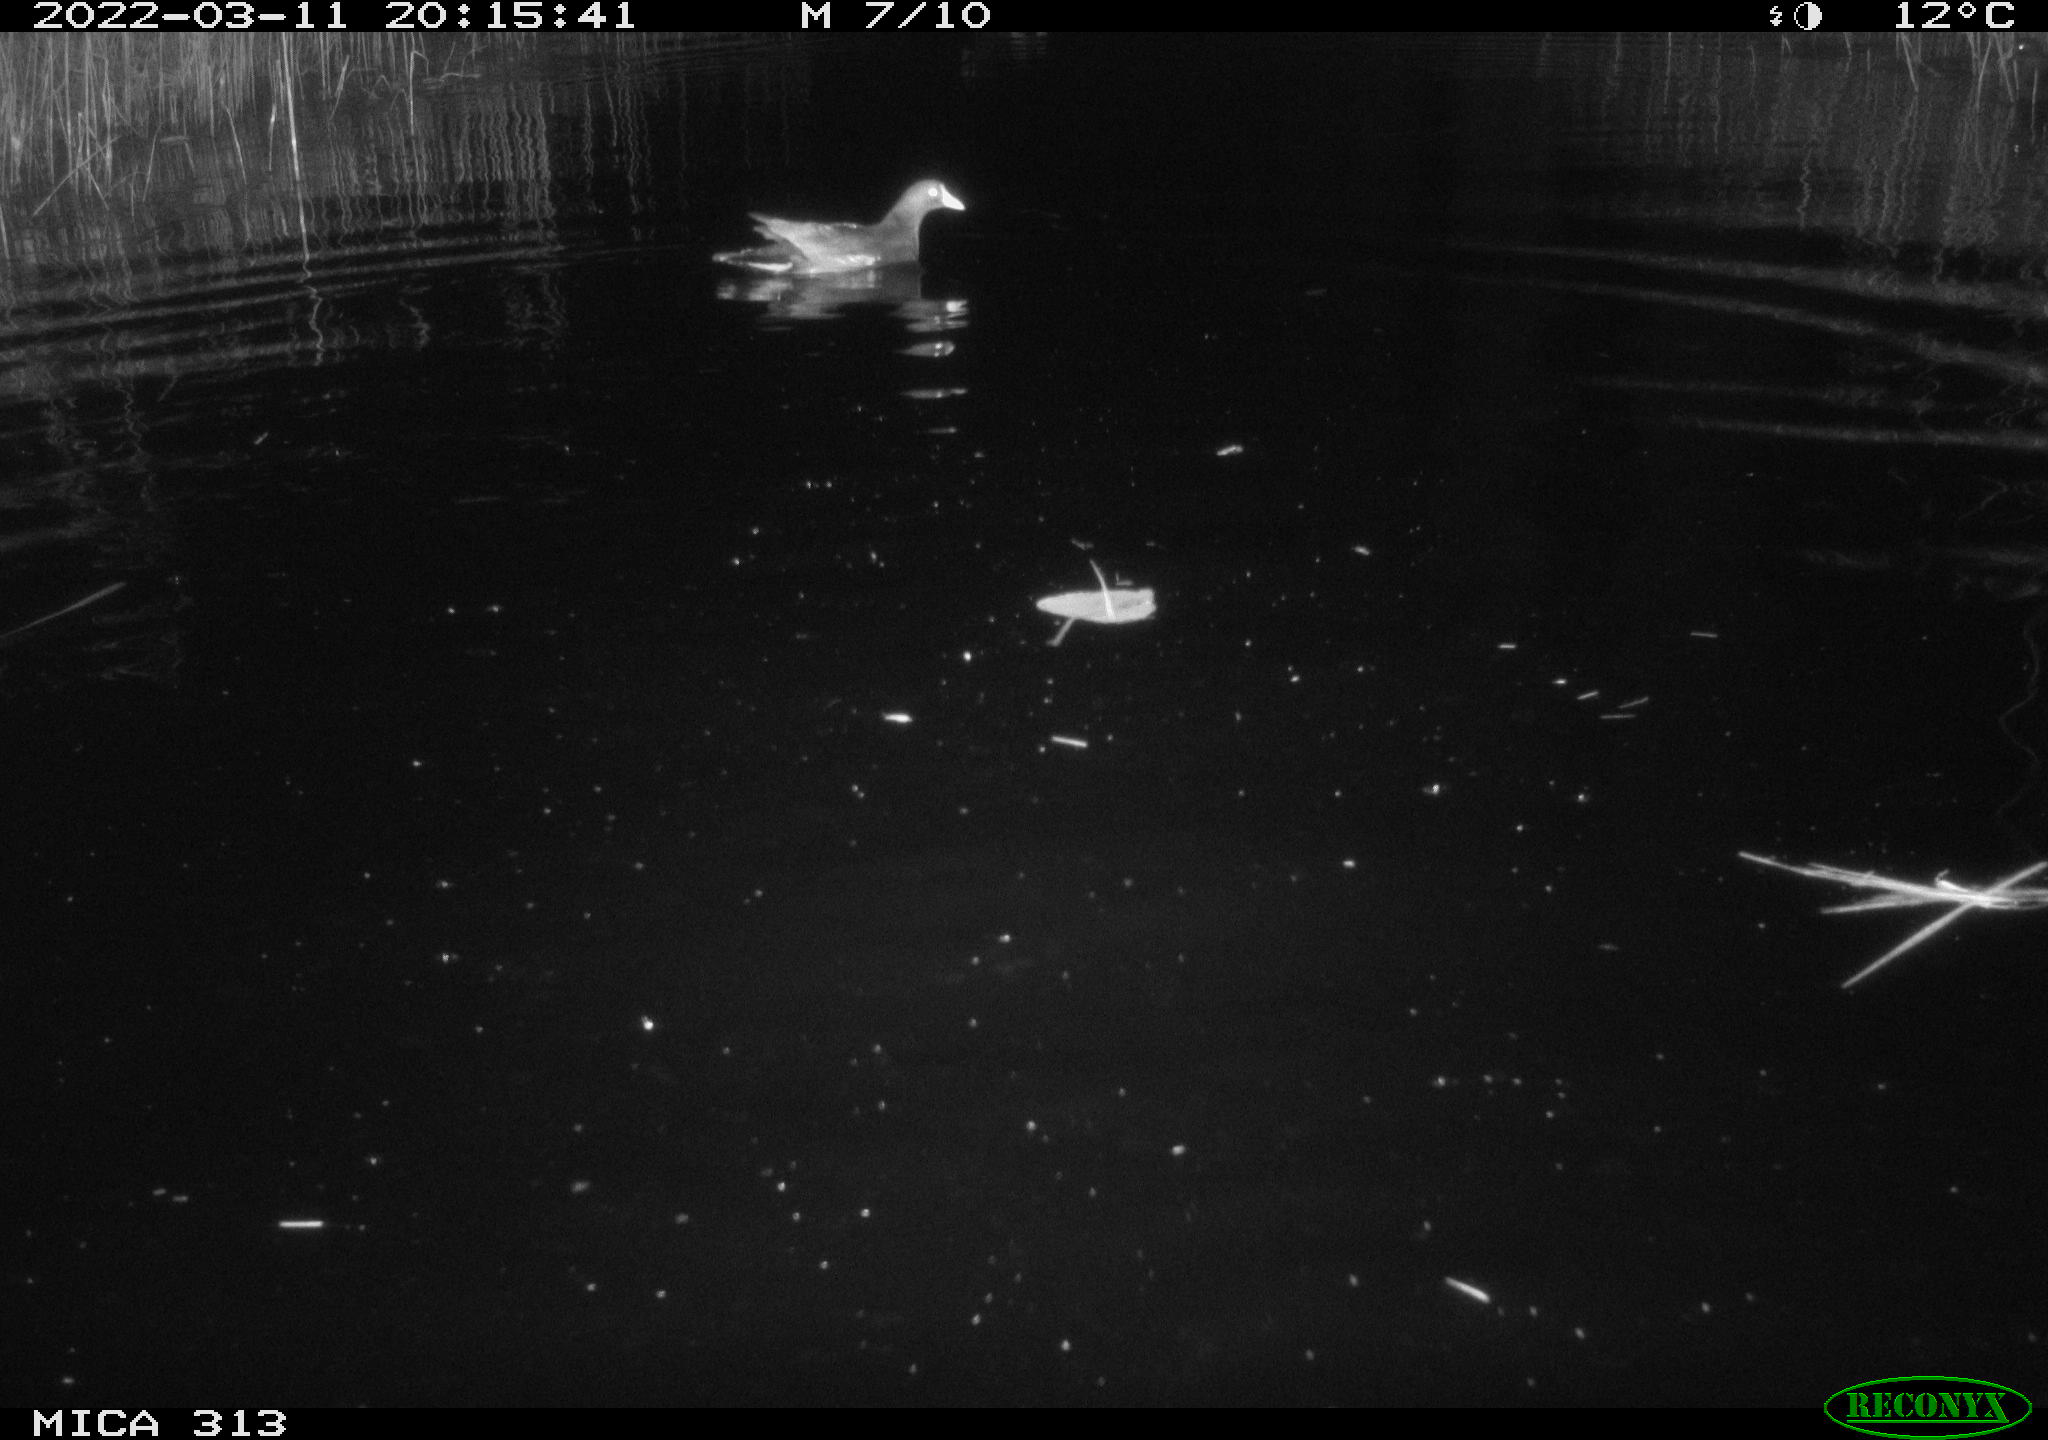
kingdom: Animalia
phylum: Chordata
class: Aves
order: Gruiformes
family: Rallidae
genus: Gallinula
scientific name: Gallinula chloropus
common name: Common moorhen
